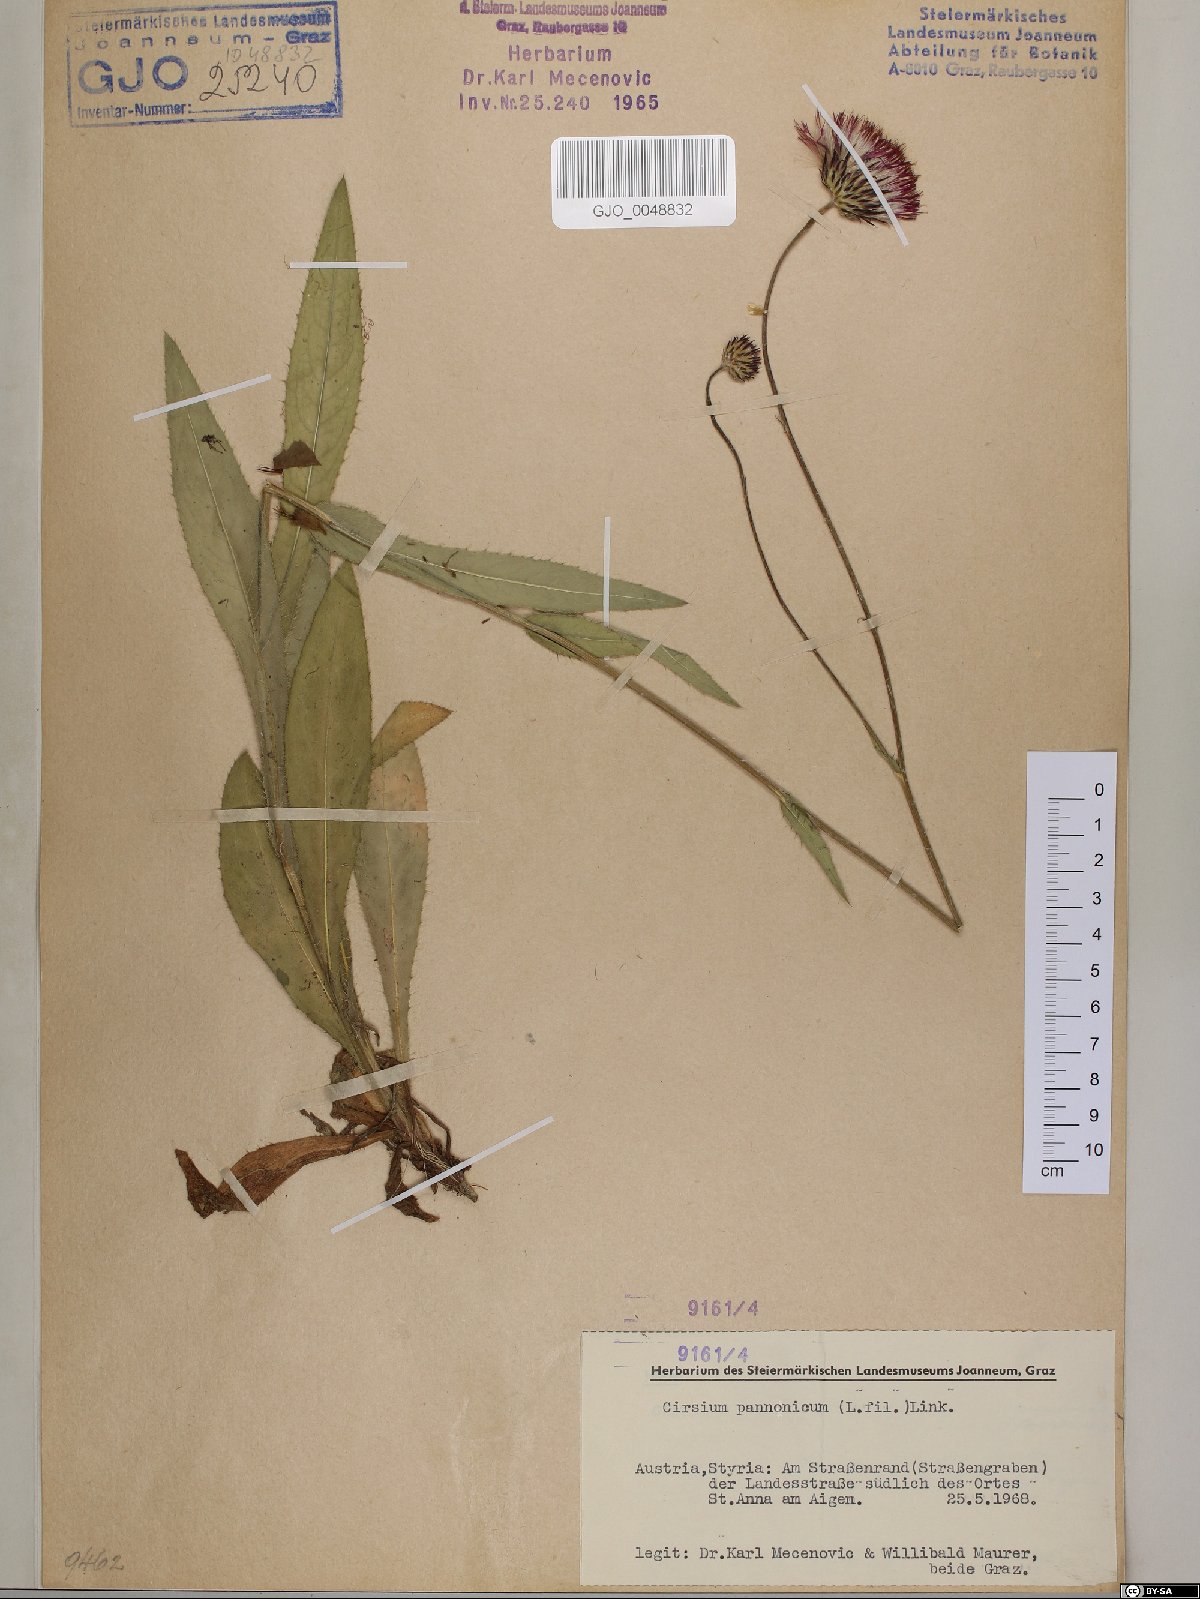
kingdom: Plantae
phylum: Tracheophyta
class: Magnoliopsida
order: Asterales
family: Asteraceae
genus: Cirsium
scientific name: Cirsium pannonicum
